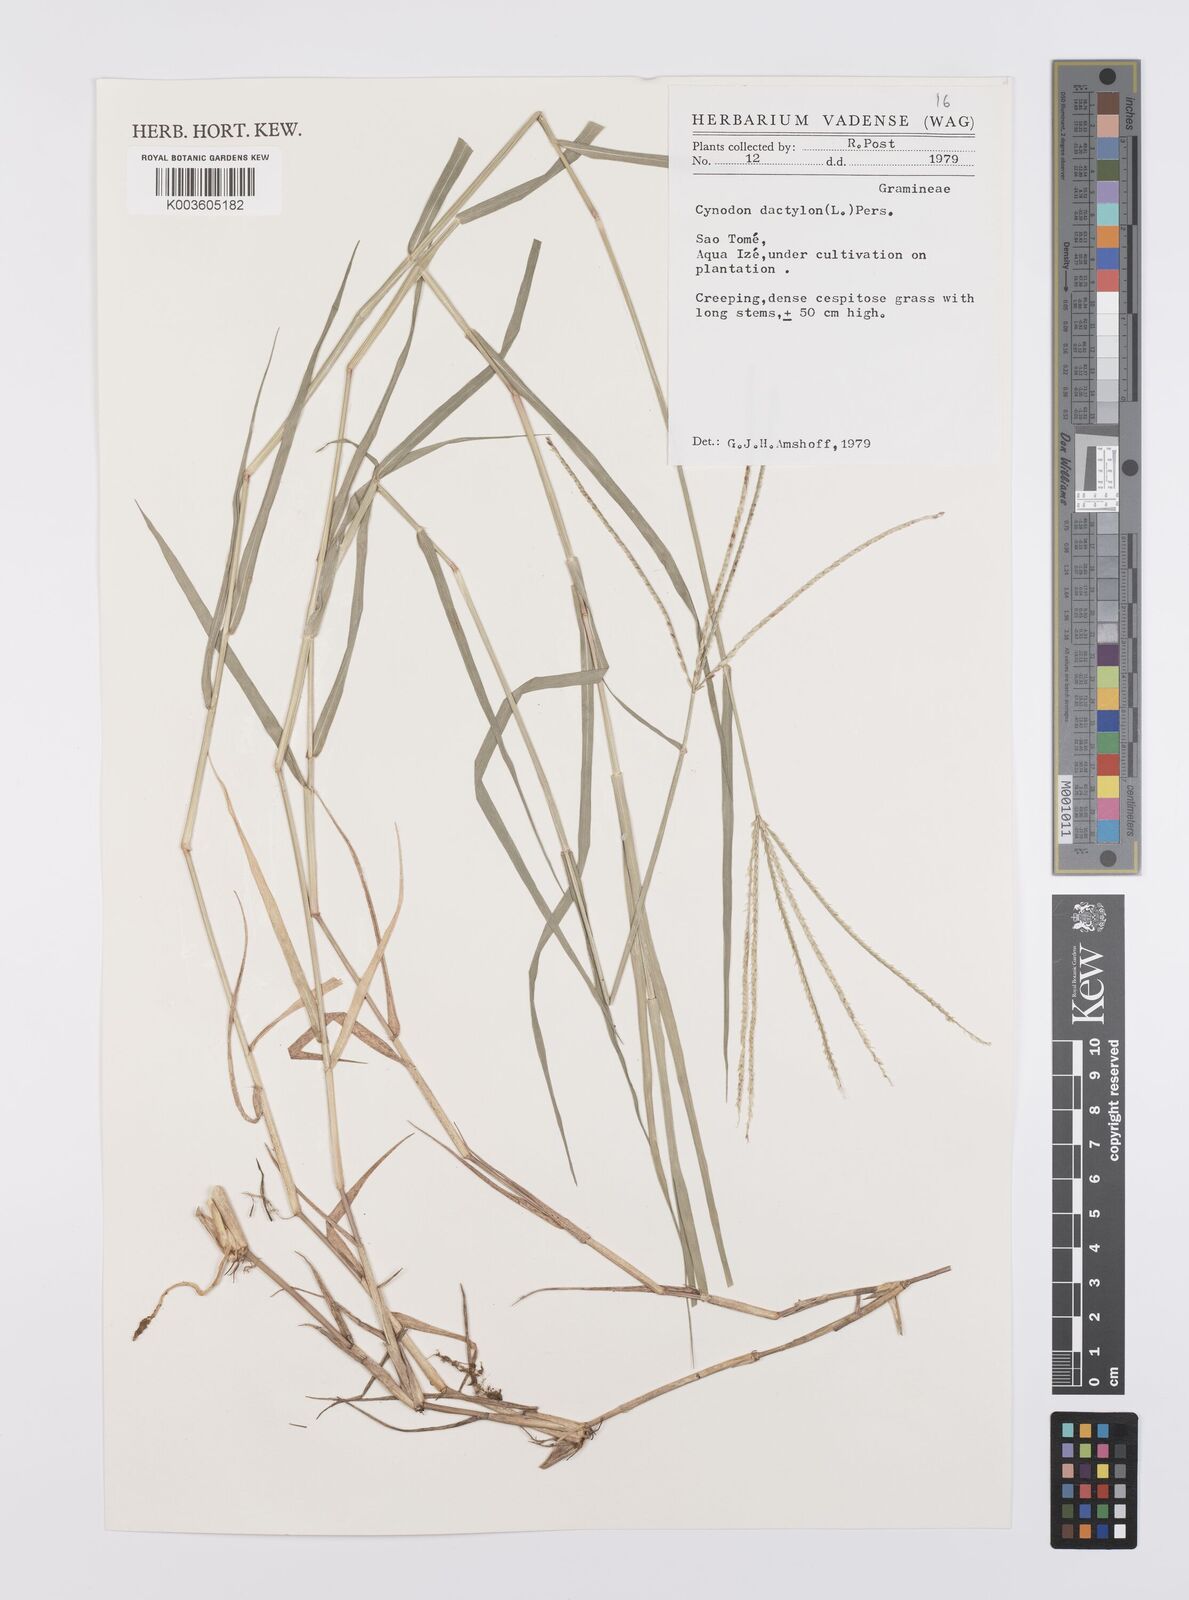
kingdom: Plantae
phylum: Tracheophyta
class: Liliopsida
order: Poales
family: Poaceae
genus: Cynodon
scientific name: Cynodon dactylon
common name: Bermuda grass
